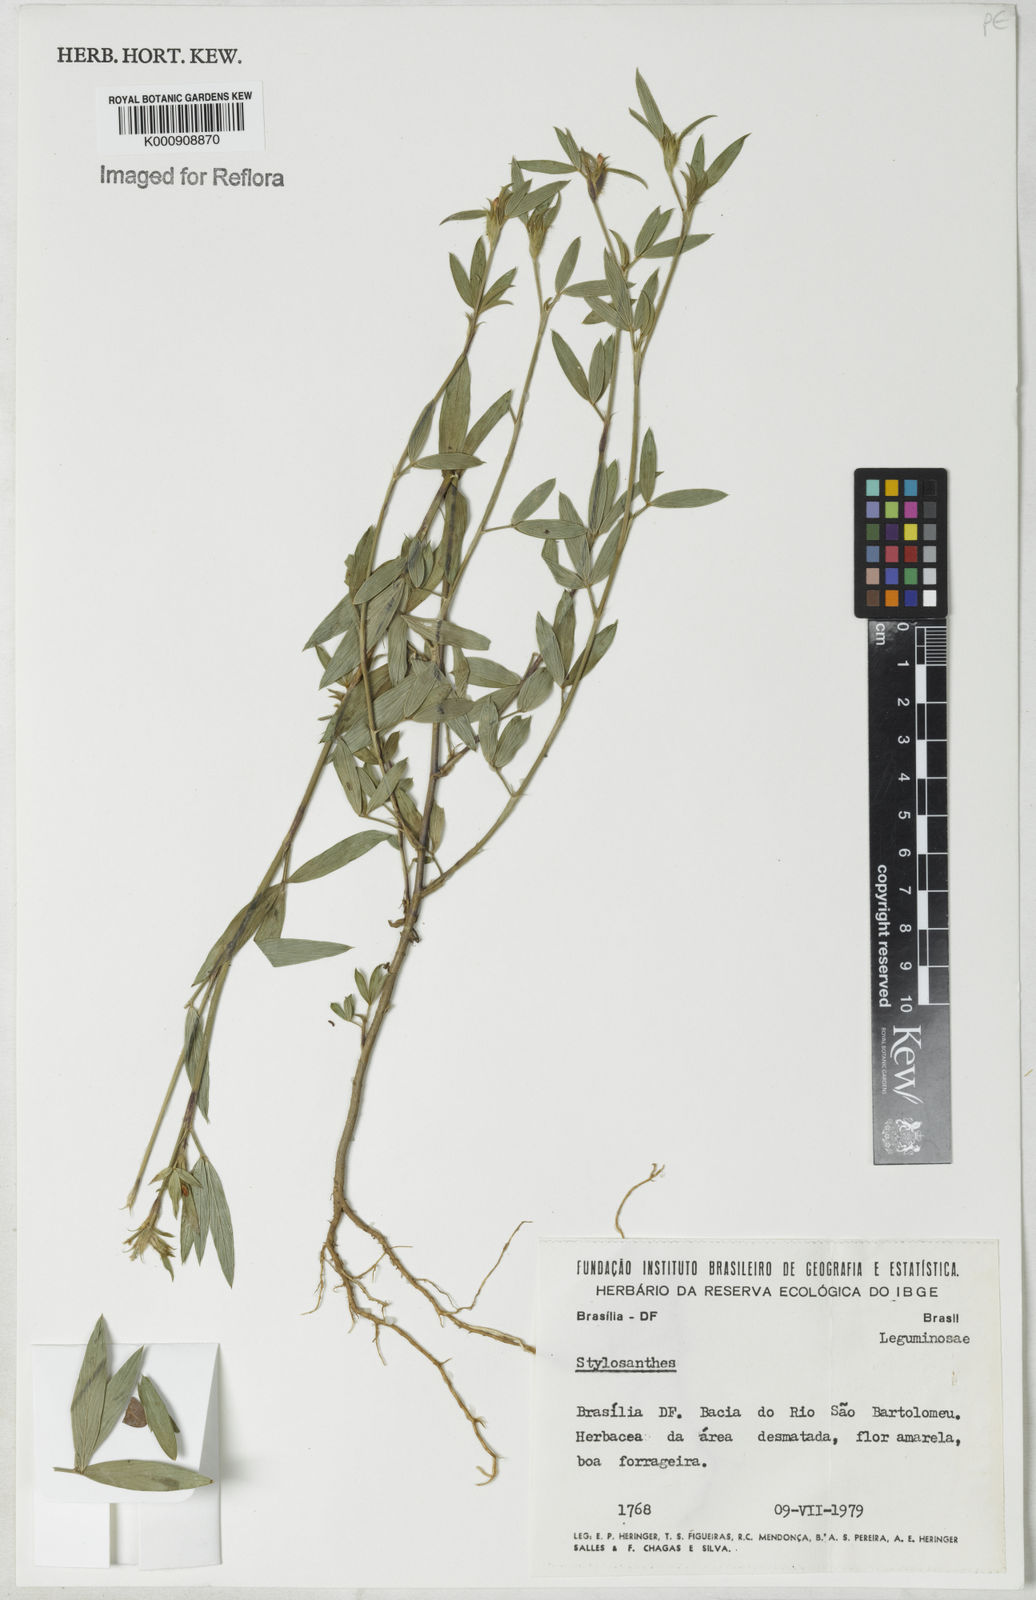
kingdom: Plantae
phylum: Tracheophyta
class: Magnoliopsida
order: Fabales
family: Fabaceae
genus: Stylosanthes
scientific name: Stylosanthes
